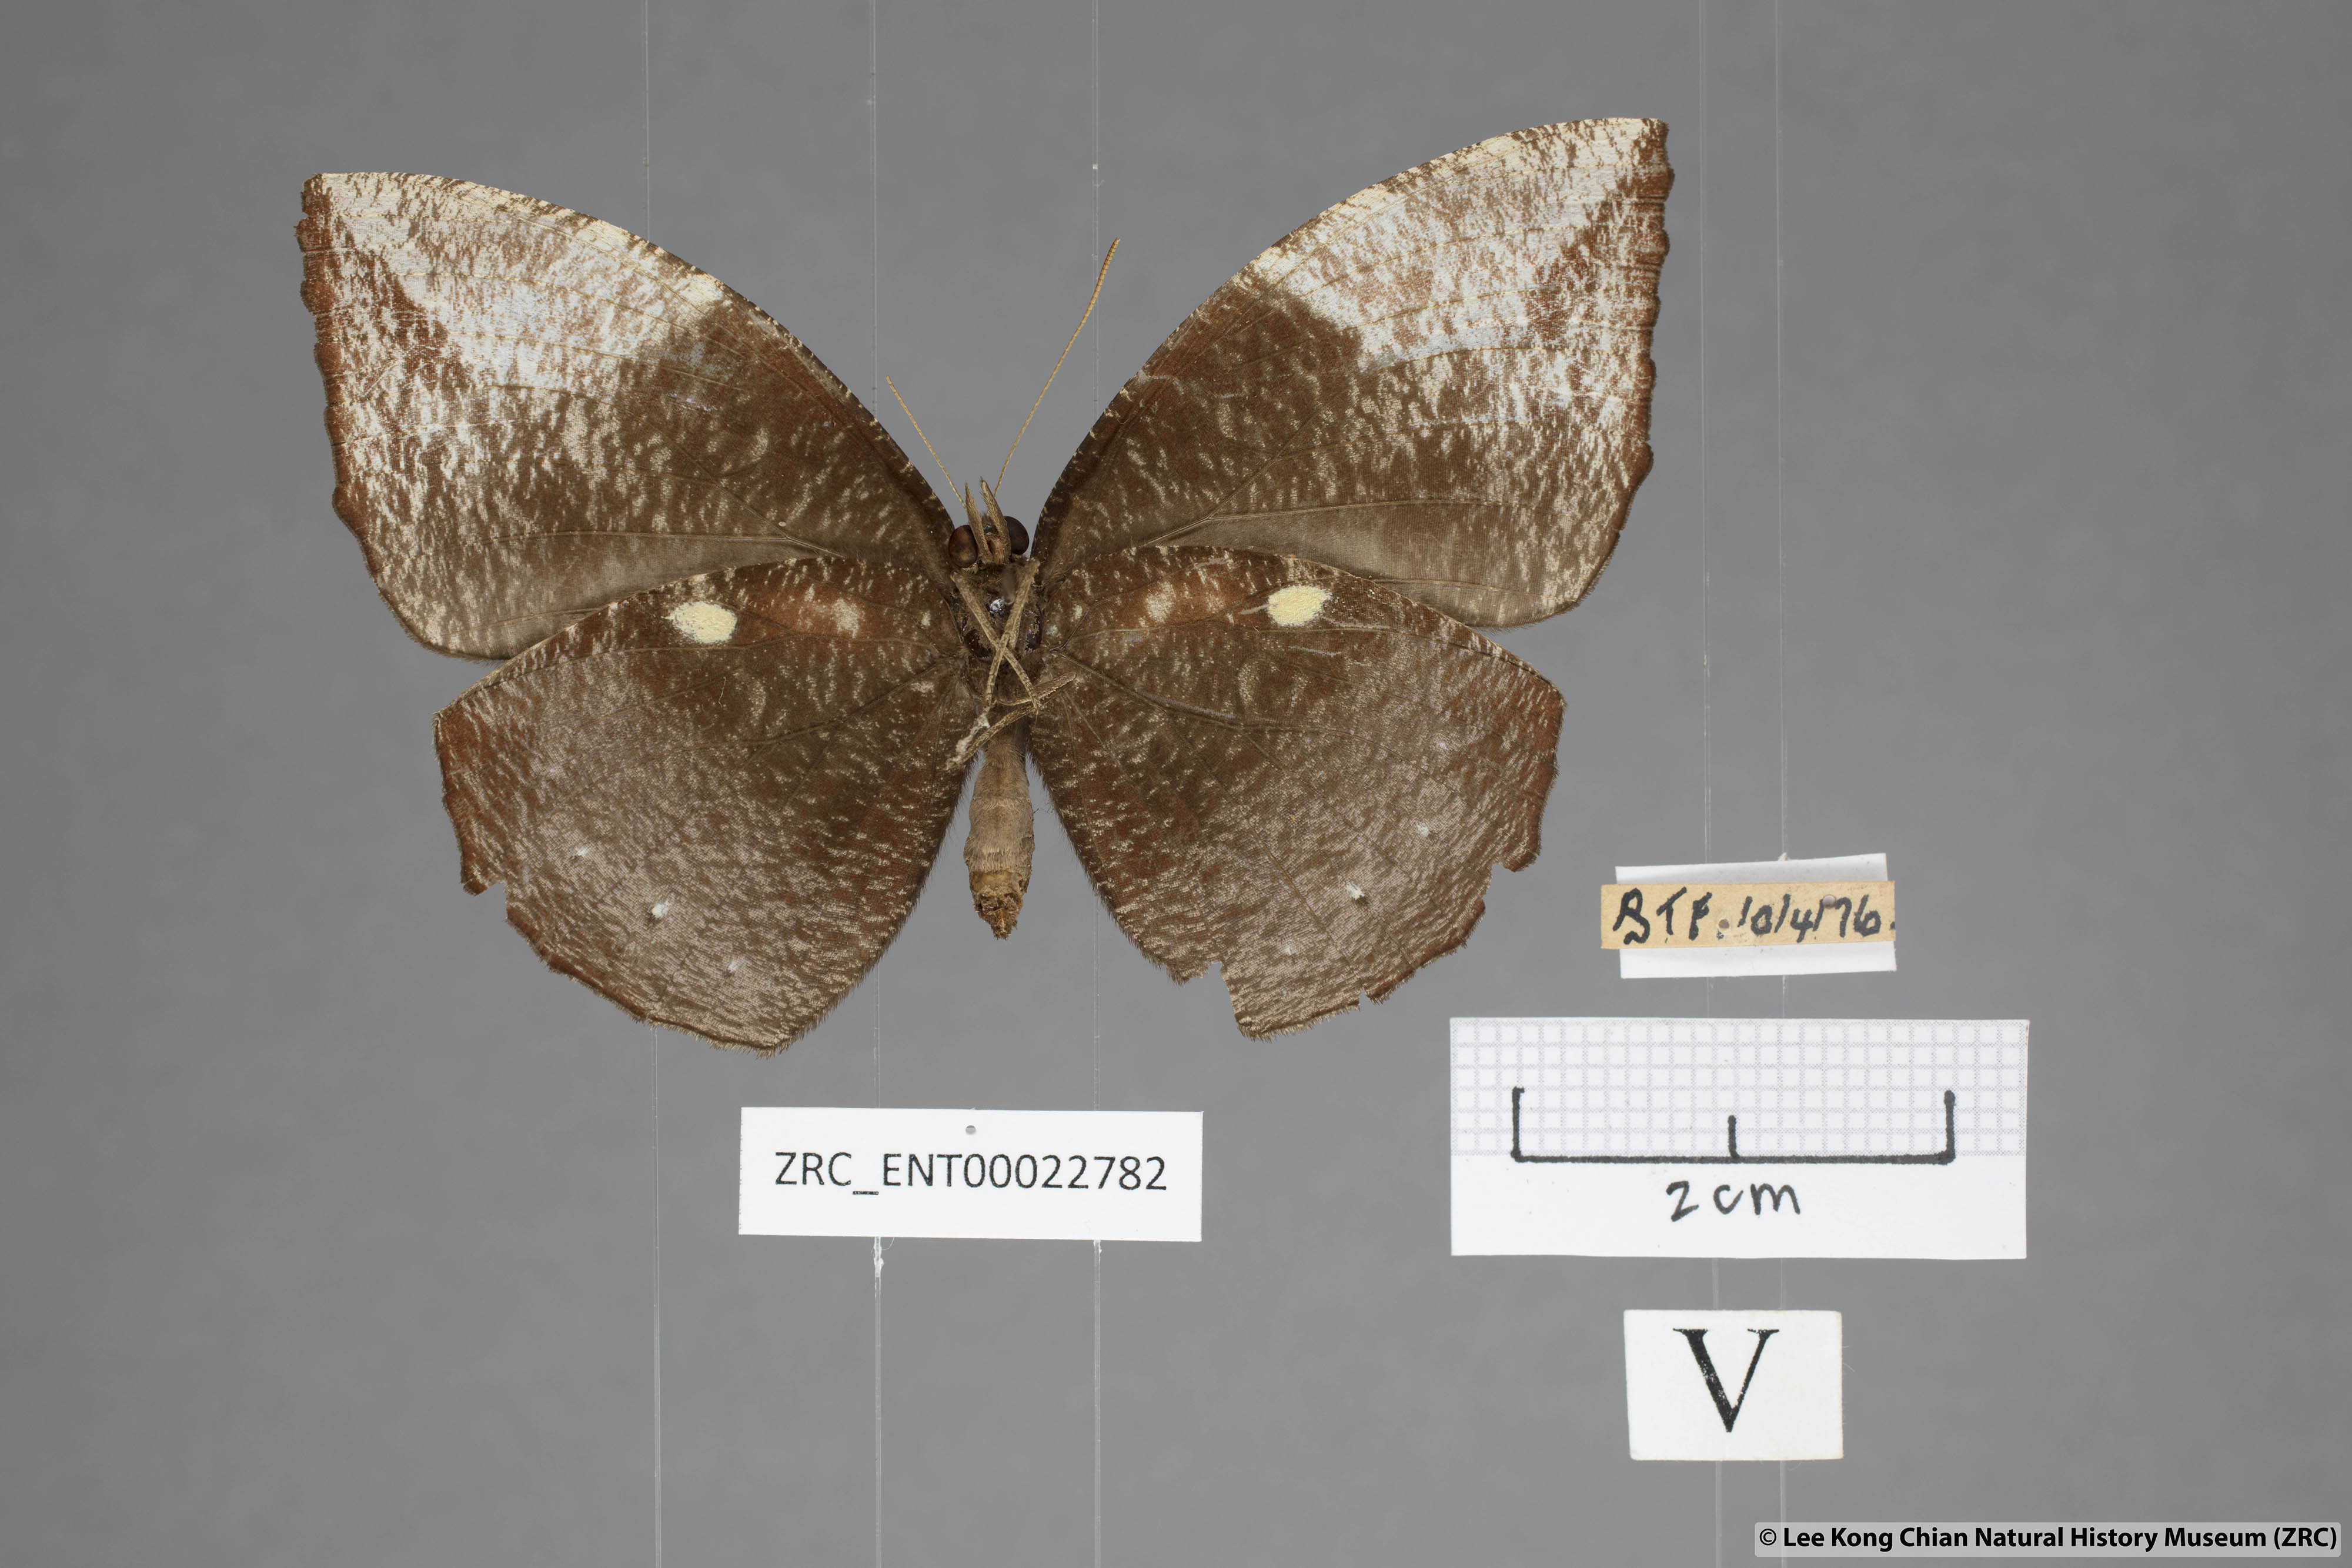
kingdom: Animalia
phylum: Arthropoda
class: Insecta
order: Lepidoptera
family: Nymphalidae
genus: Elymnias
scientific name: Elymnias penanga
